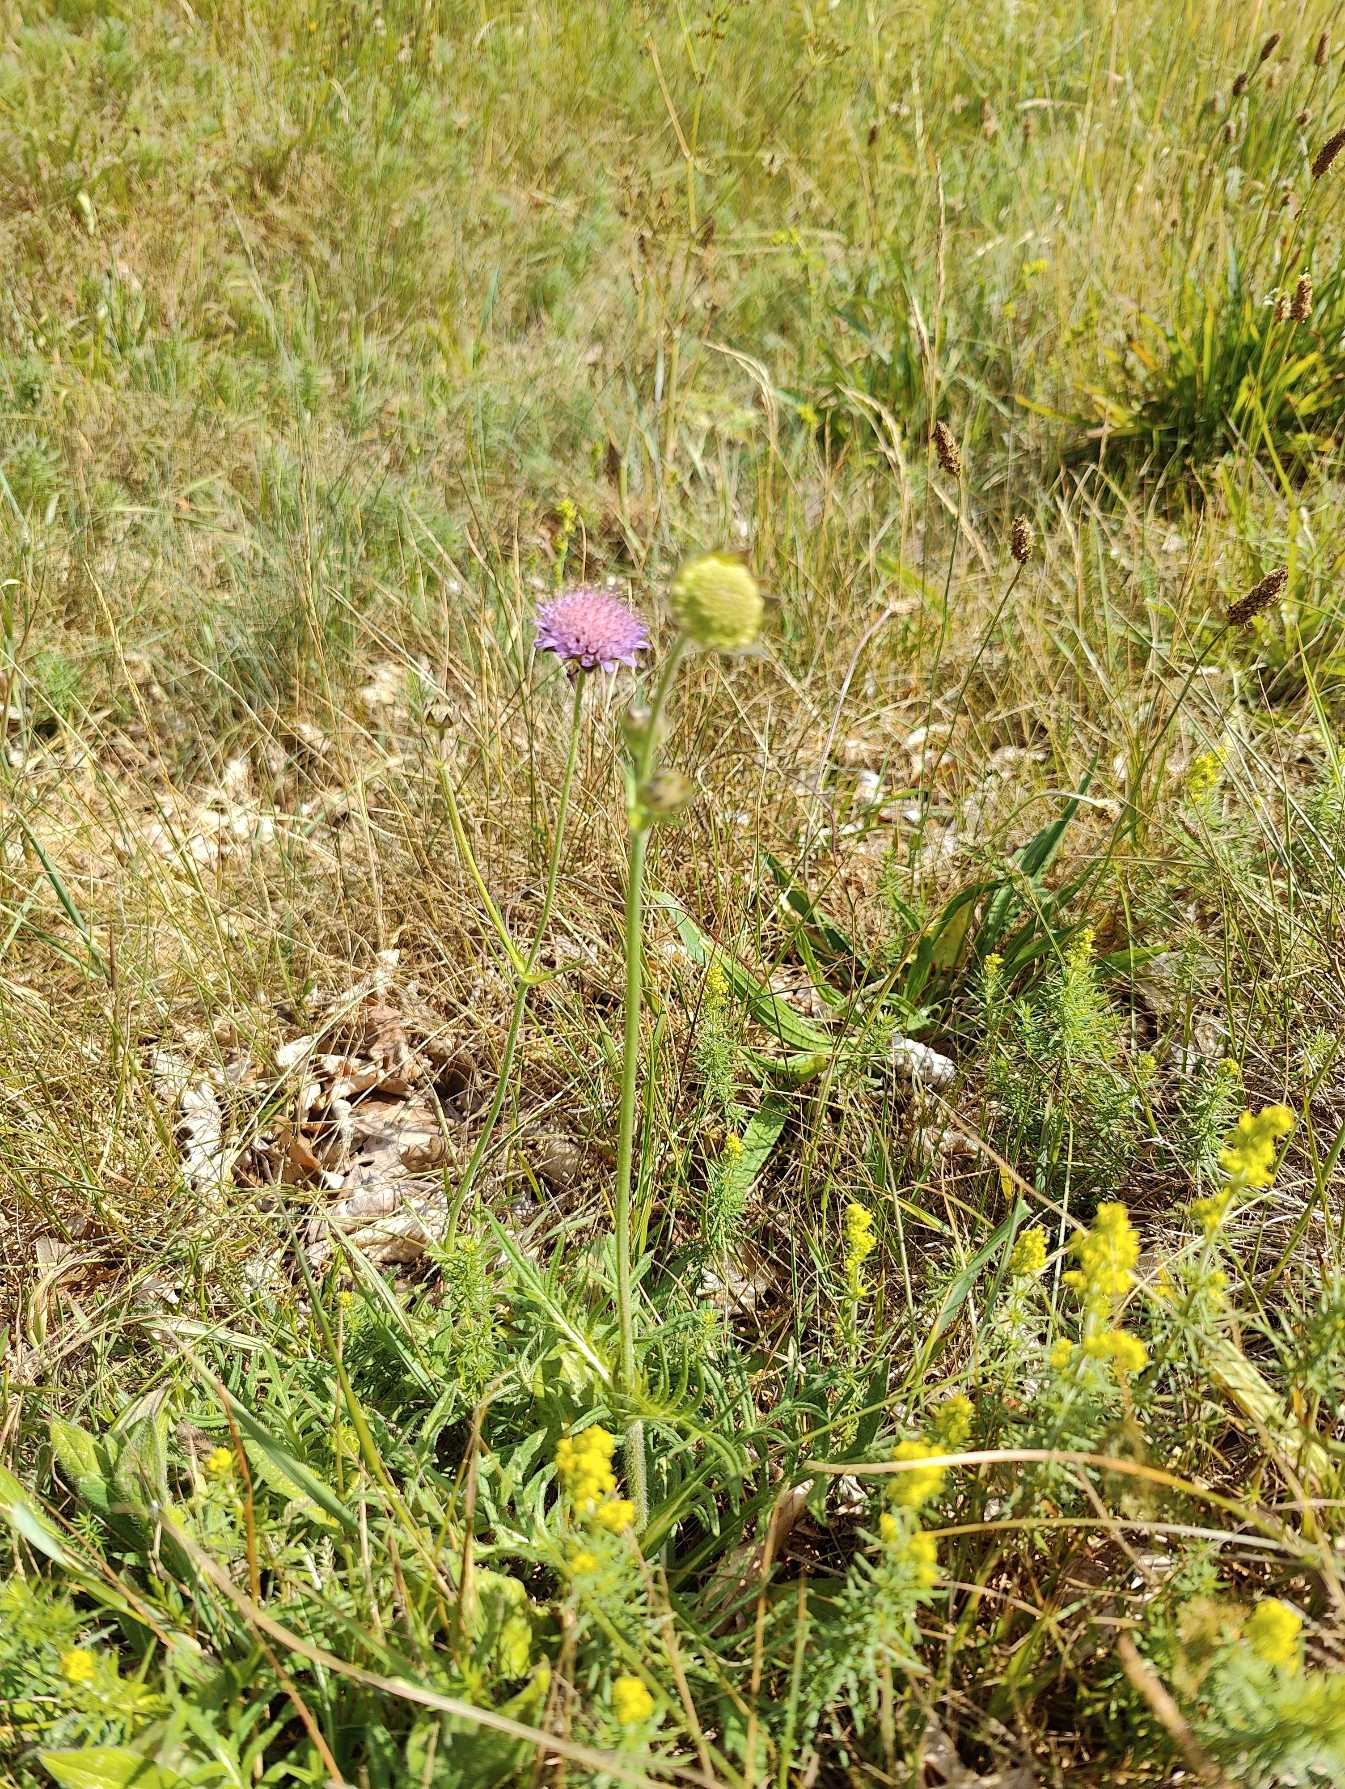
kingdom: Plantae
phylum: Tracheophyta
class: Magnoliopsida
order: Dipsacales
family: Caprifoliaceae
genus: Knautia
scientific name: Knautia arvensis
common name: Blåhat
